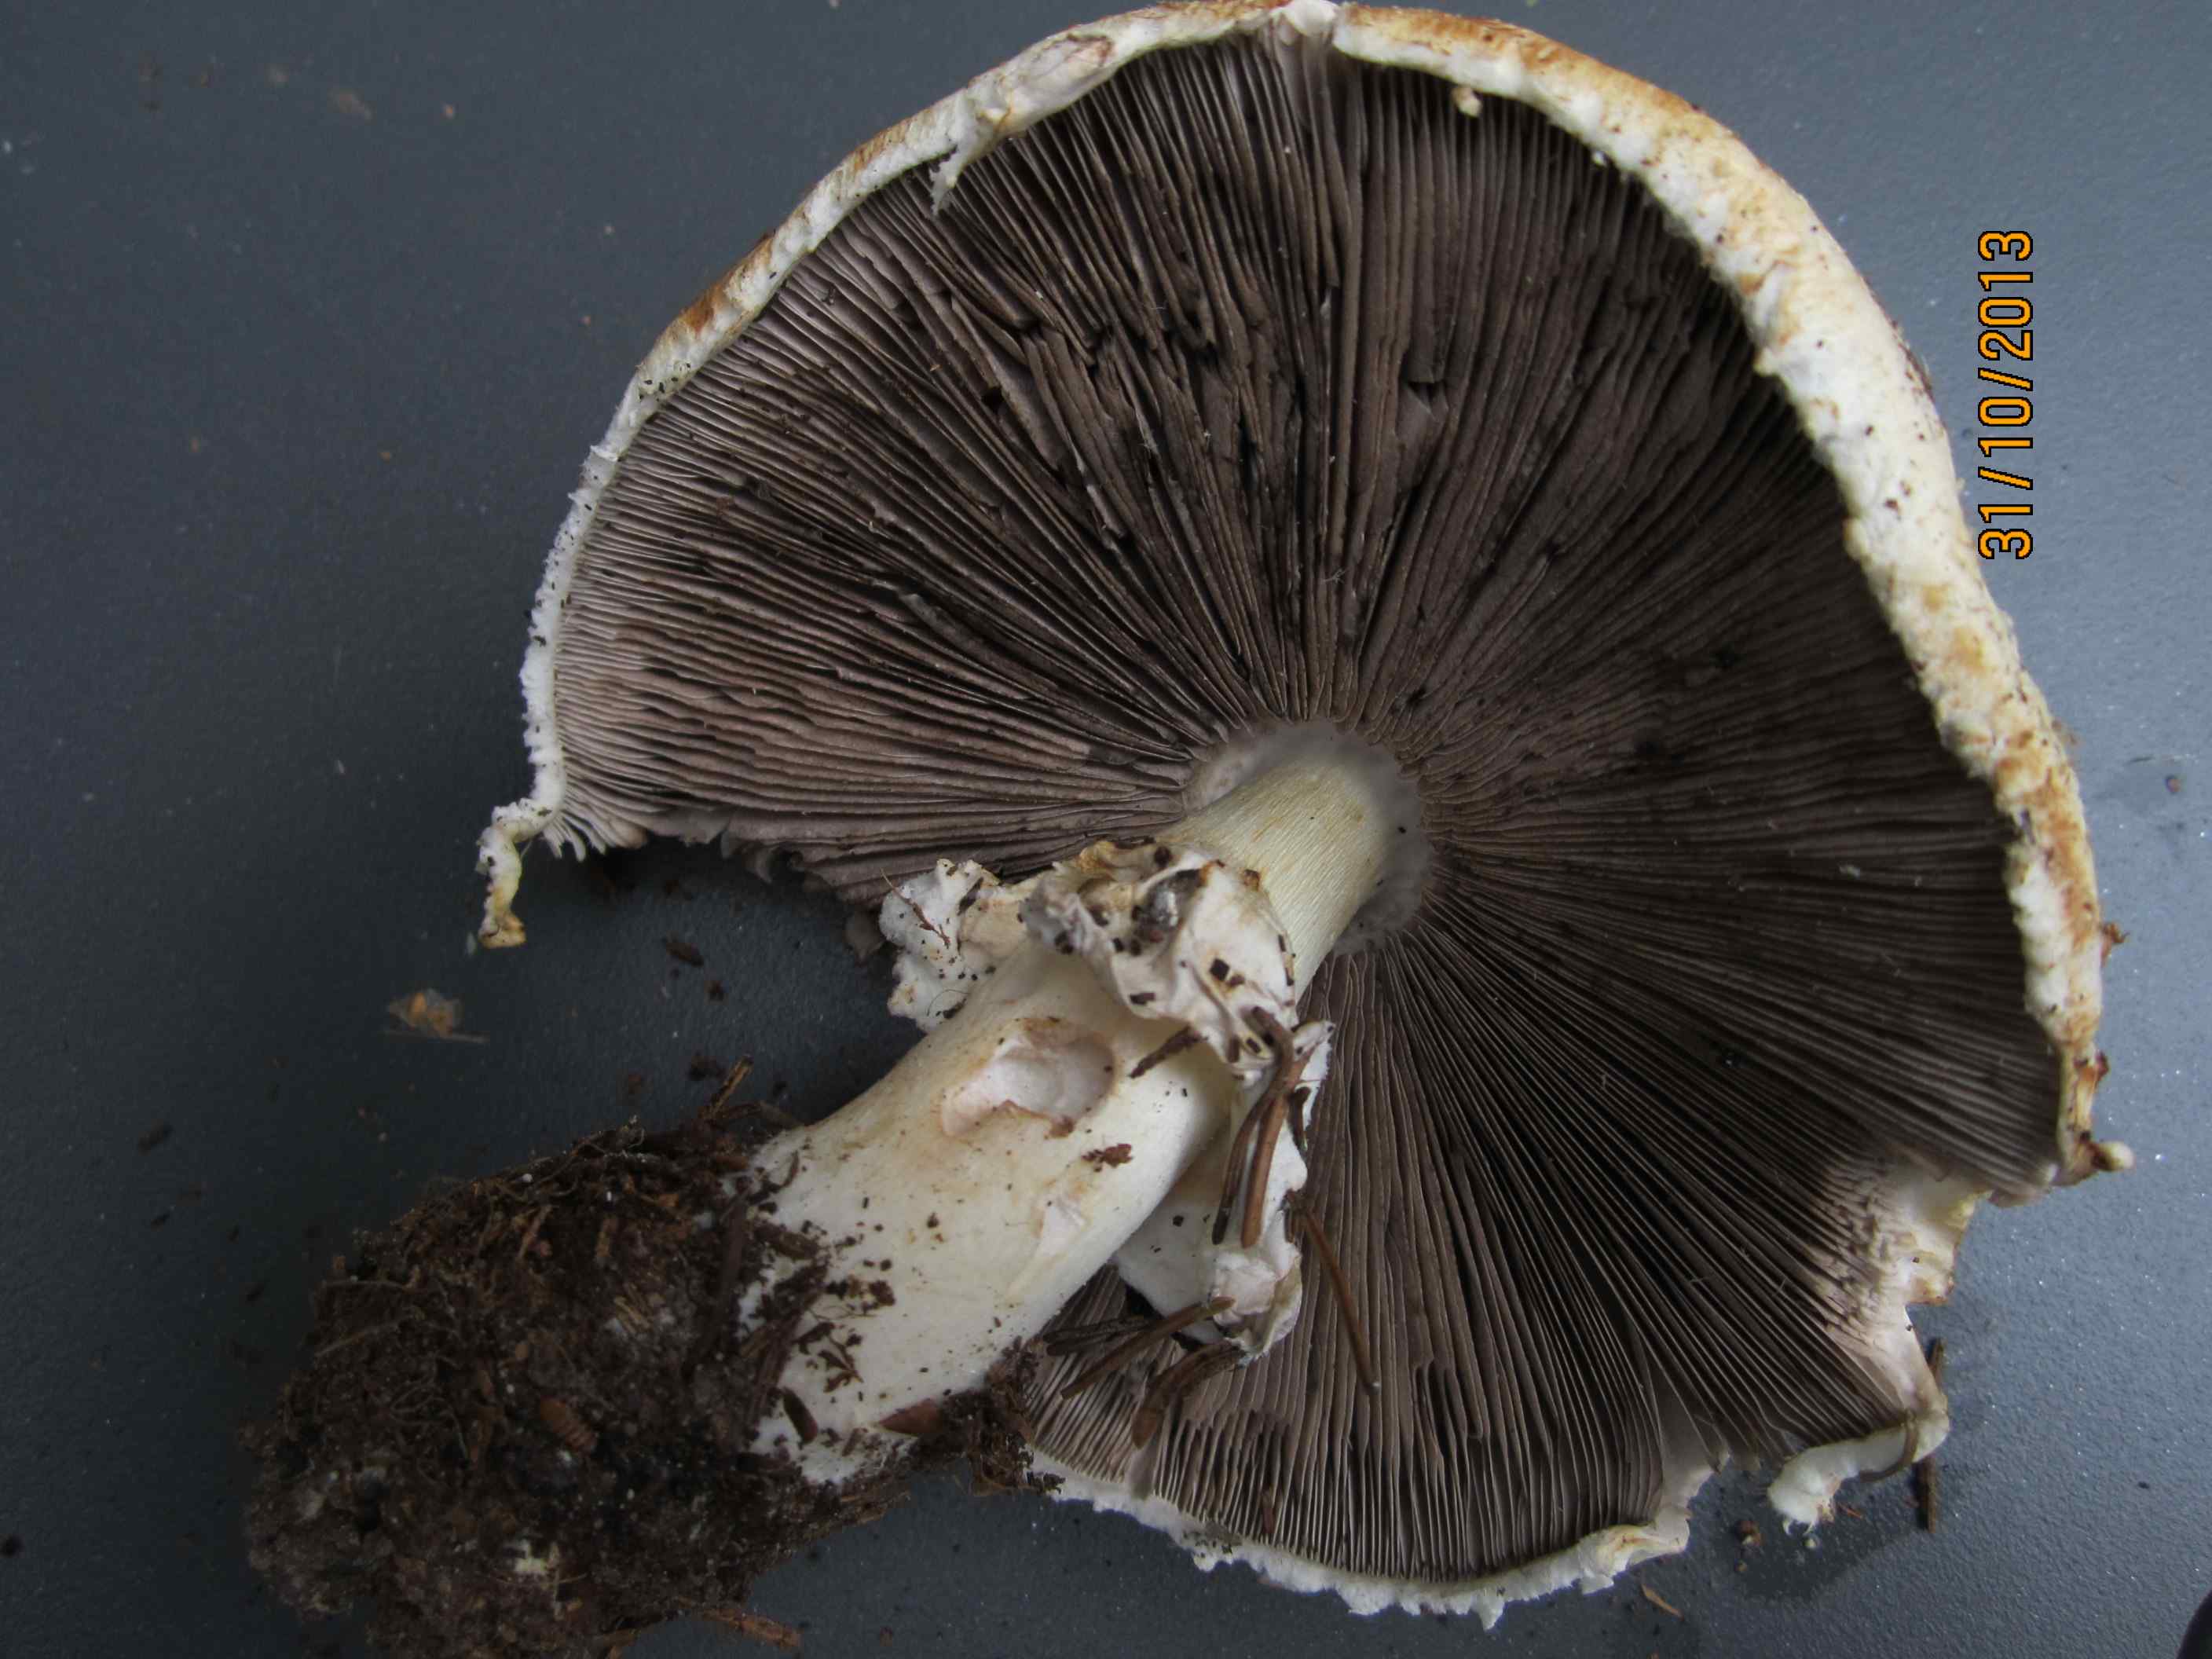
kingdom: Fungi
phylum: Basidiomycota
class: Agaricomycetes
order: Agaricales
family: Agaricaceae
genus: Agaricus
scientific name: Agaricus arvensis
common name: ager-champignon
